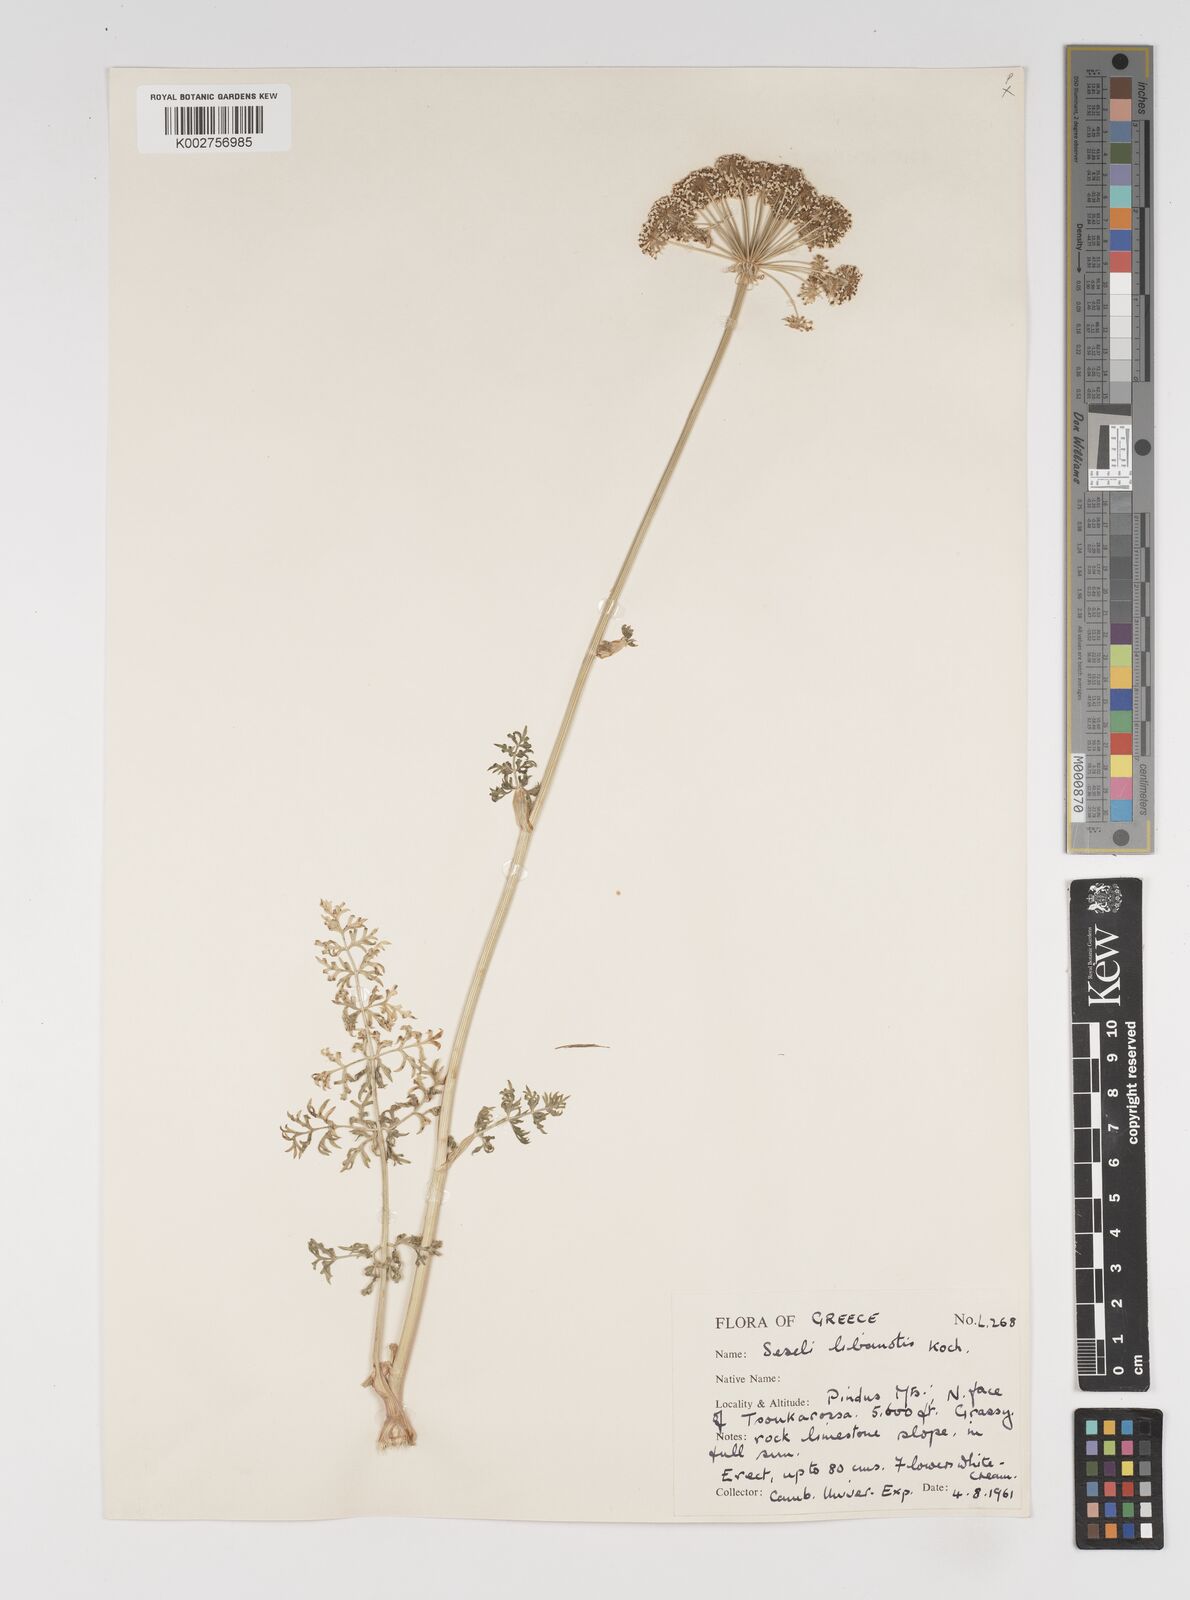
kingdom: Plantae
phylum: Tracheophyta
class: Magnoliopsida
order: Apiales
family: Apiaceae
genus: Seseli
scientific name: Seseli libanotis
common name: Mooncarrot
